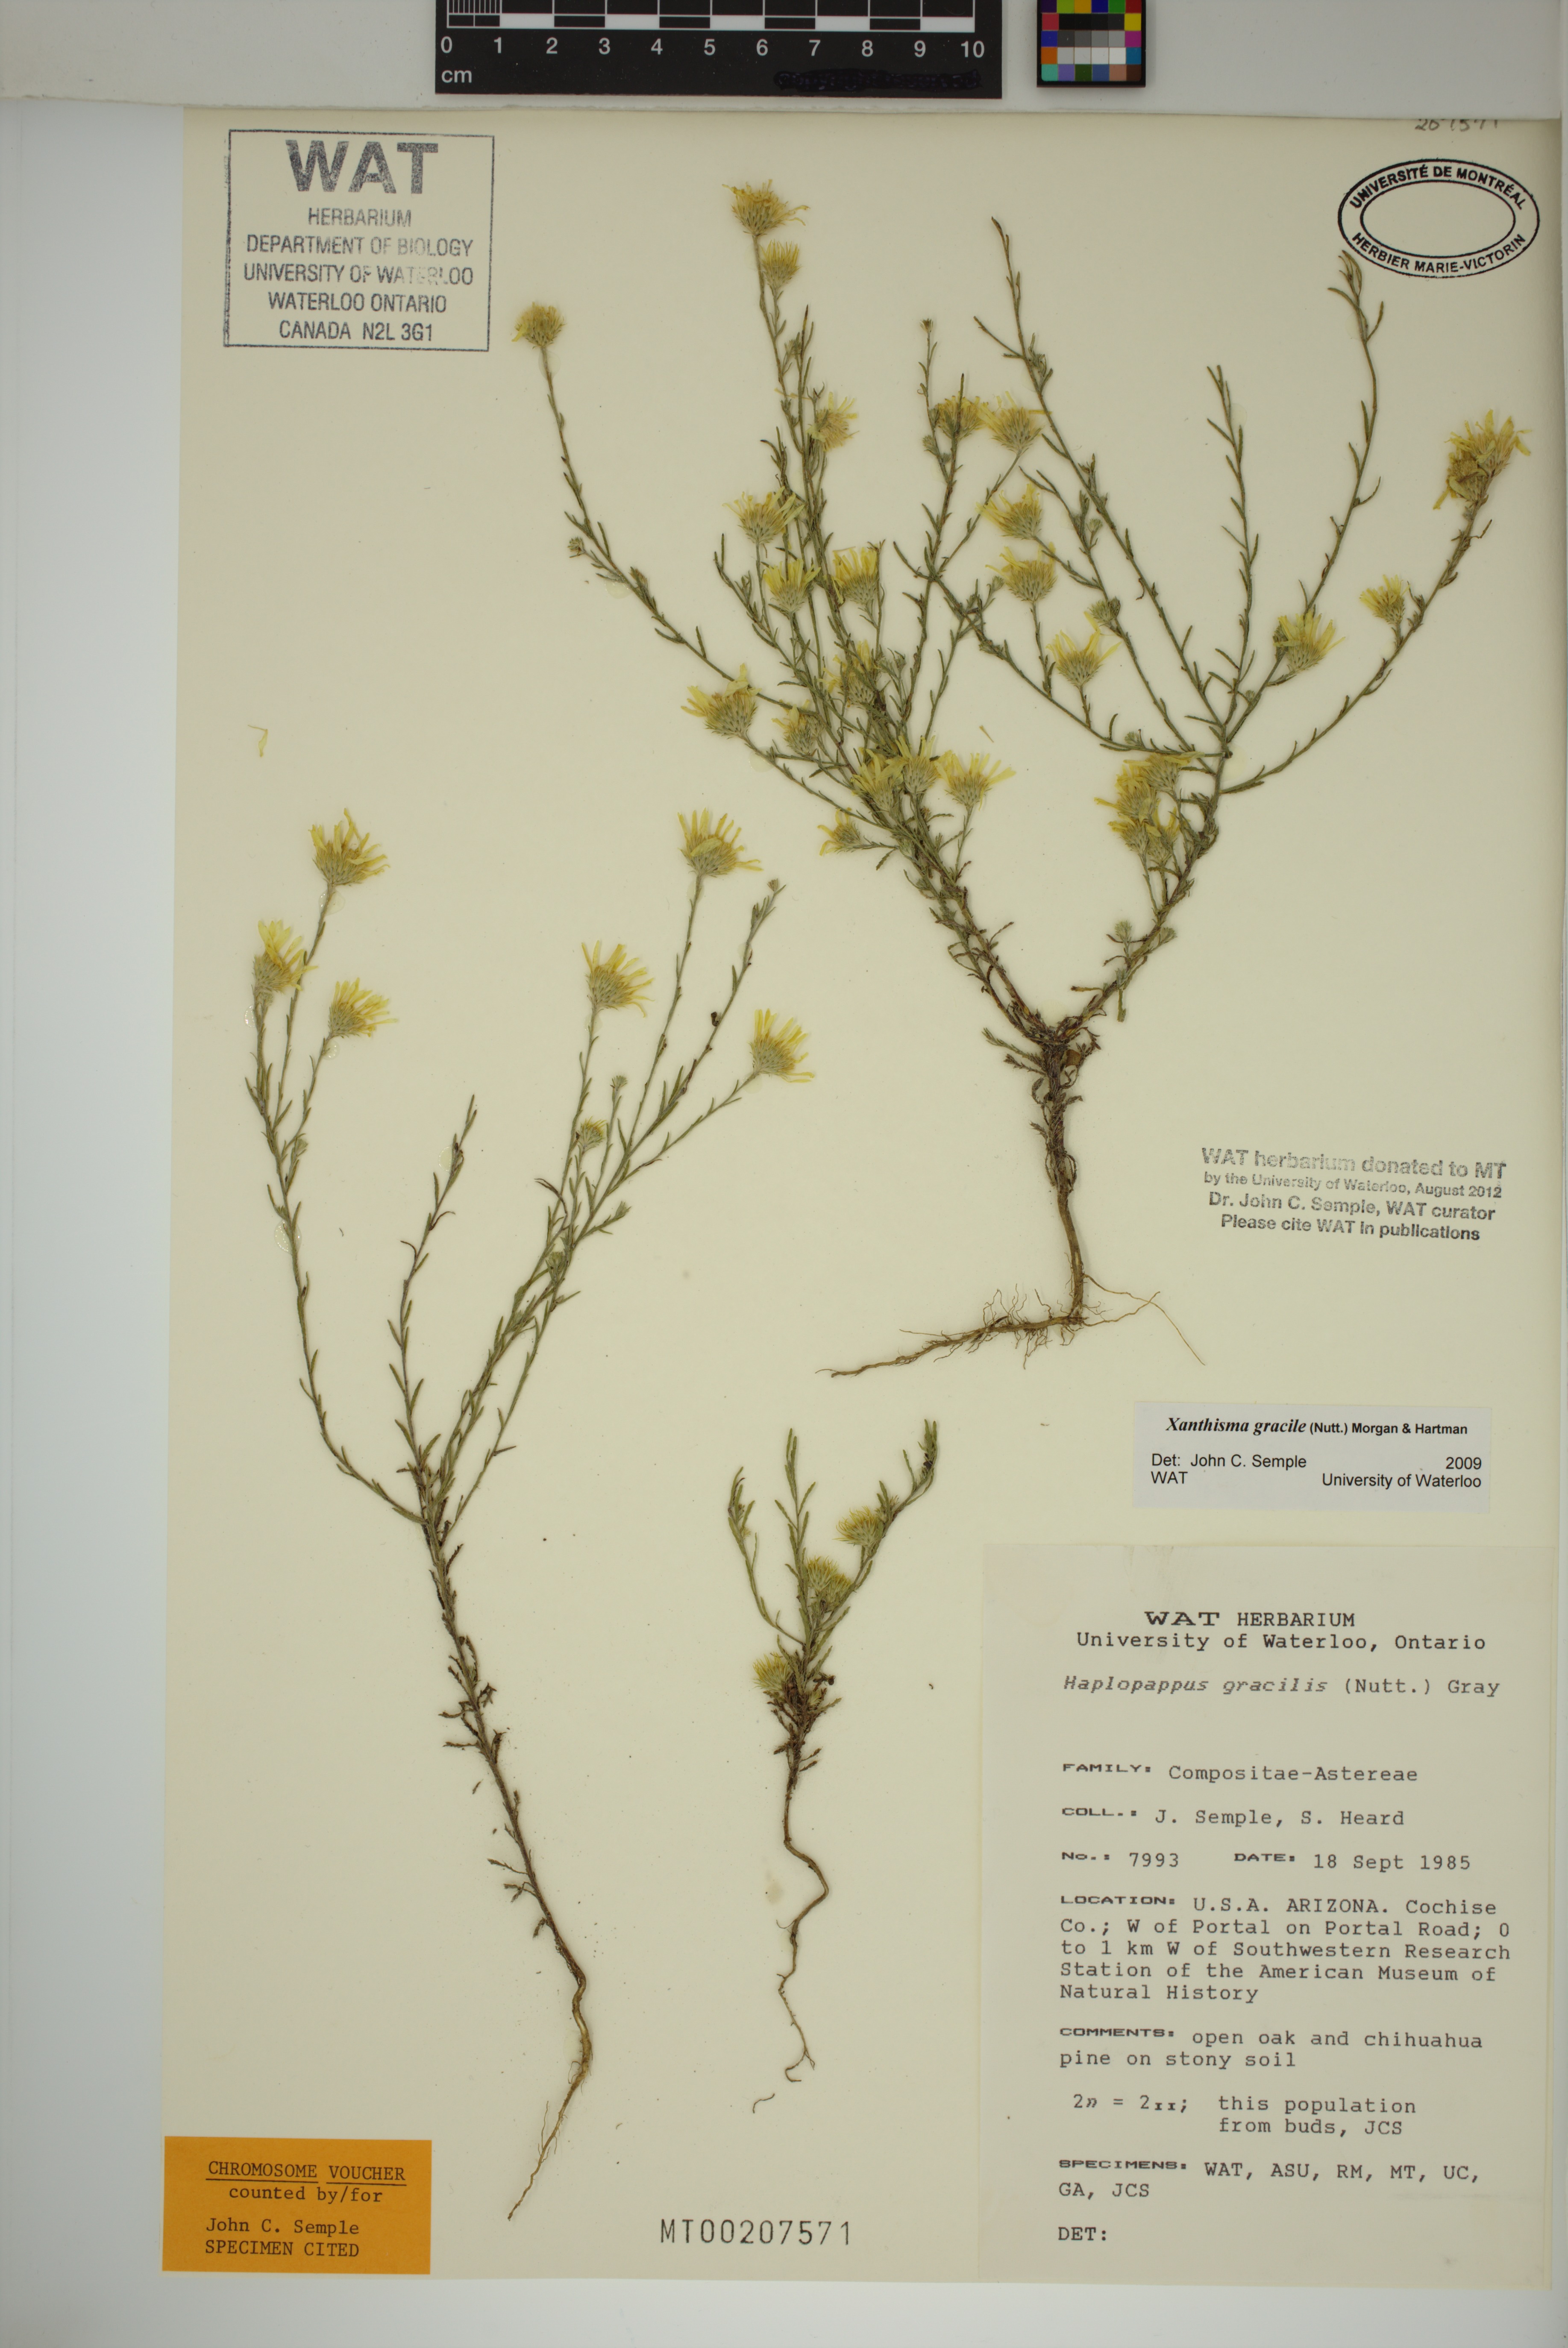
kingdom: Plantae
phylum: Tracheophyta
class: Magnoliopsida
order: Asterales
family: Asteraceae
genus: Xanthisma
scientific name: Xanthisma gracile
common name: Slender goldenweed
